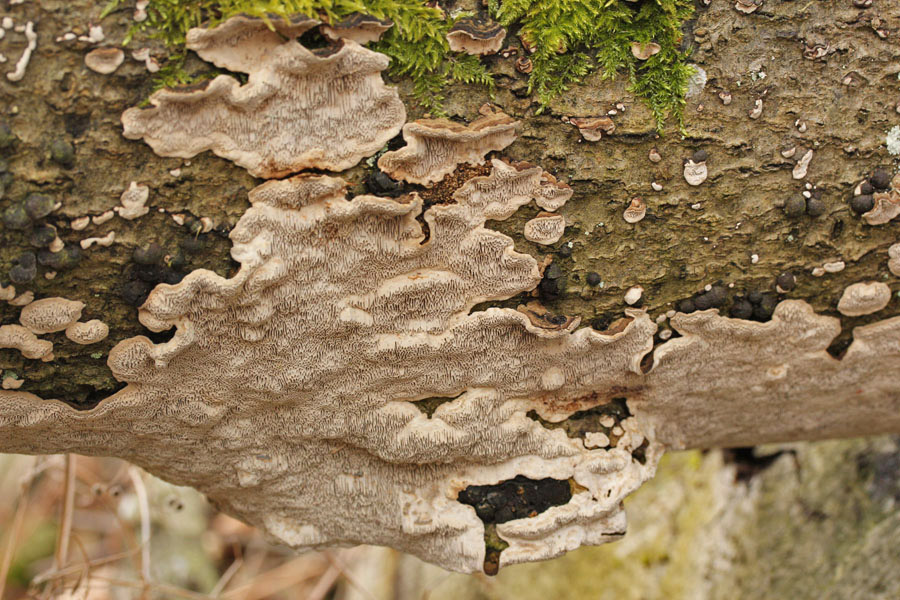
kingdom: Fungi
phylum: Basidiomycota
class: Agaricomycetes
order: Polyporales
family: Polyporaceae
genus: Podofomes
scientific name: Podofomes mollis
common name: blød begporesvamp
